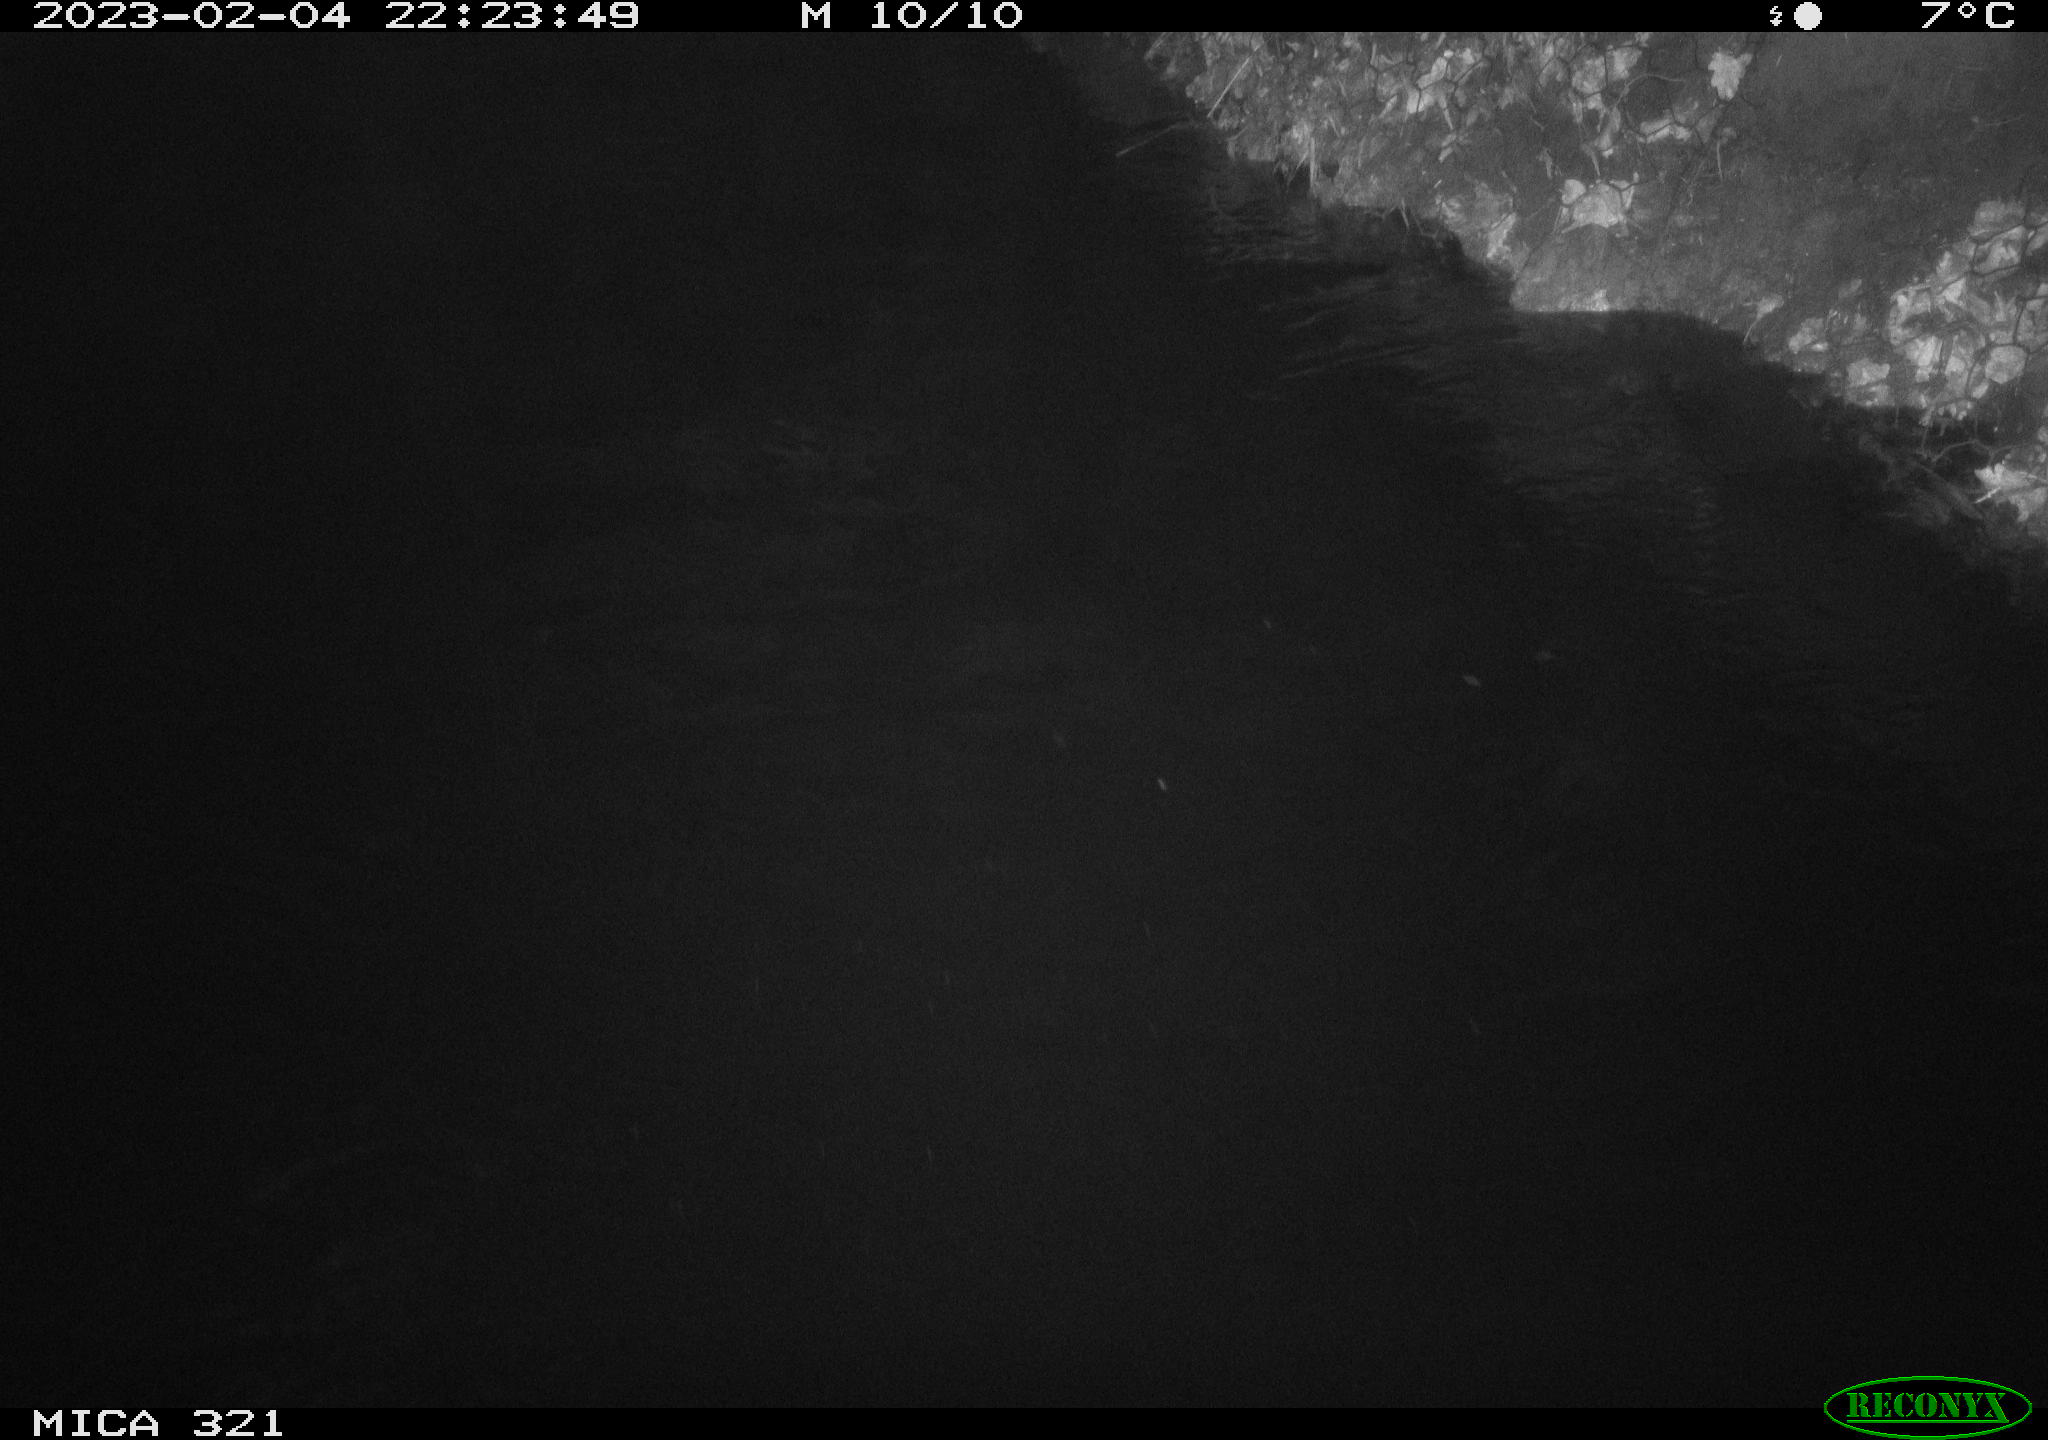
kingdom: Animalia
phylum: Chordata
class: Aves
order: Anseriformes
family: Anatidae
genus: Anas
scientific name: Anas
